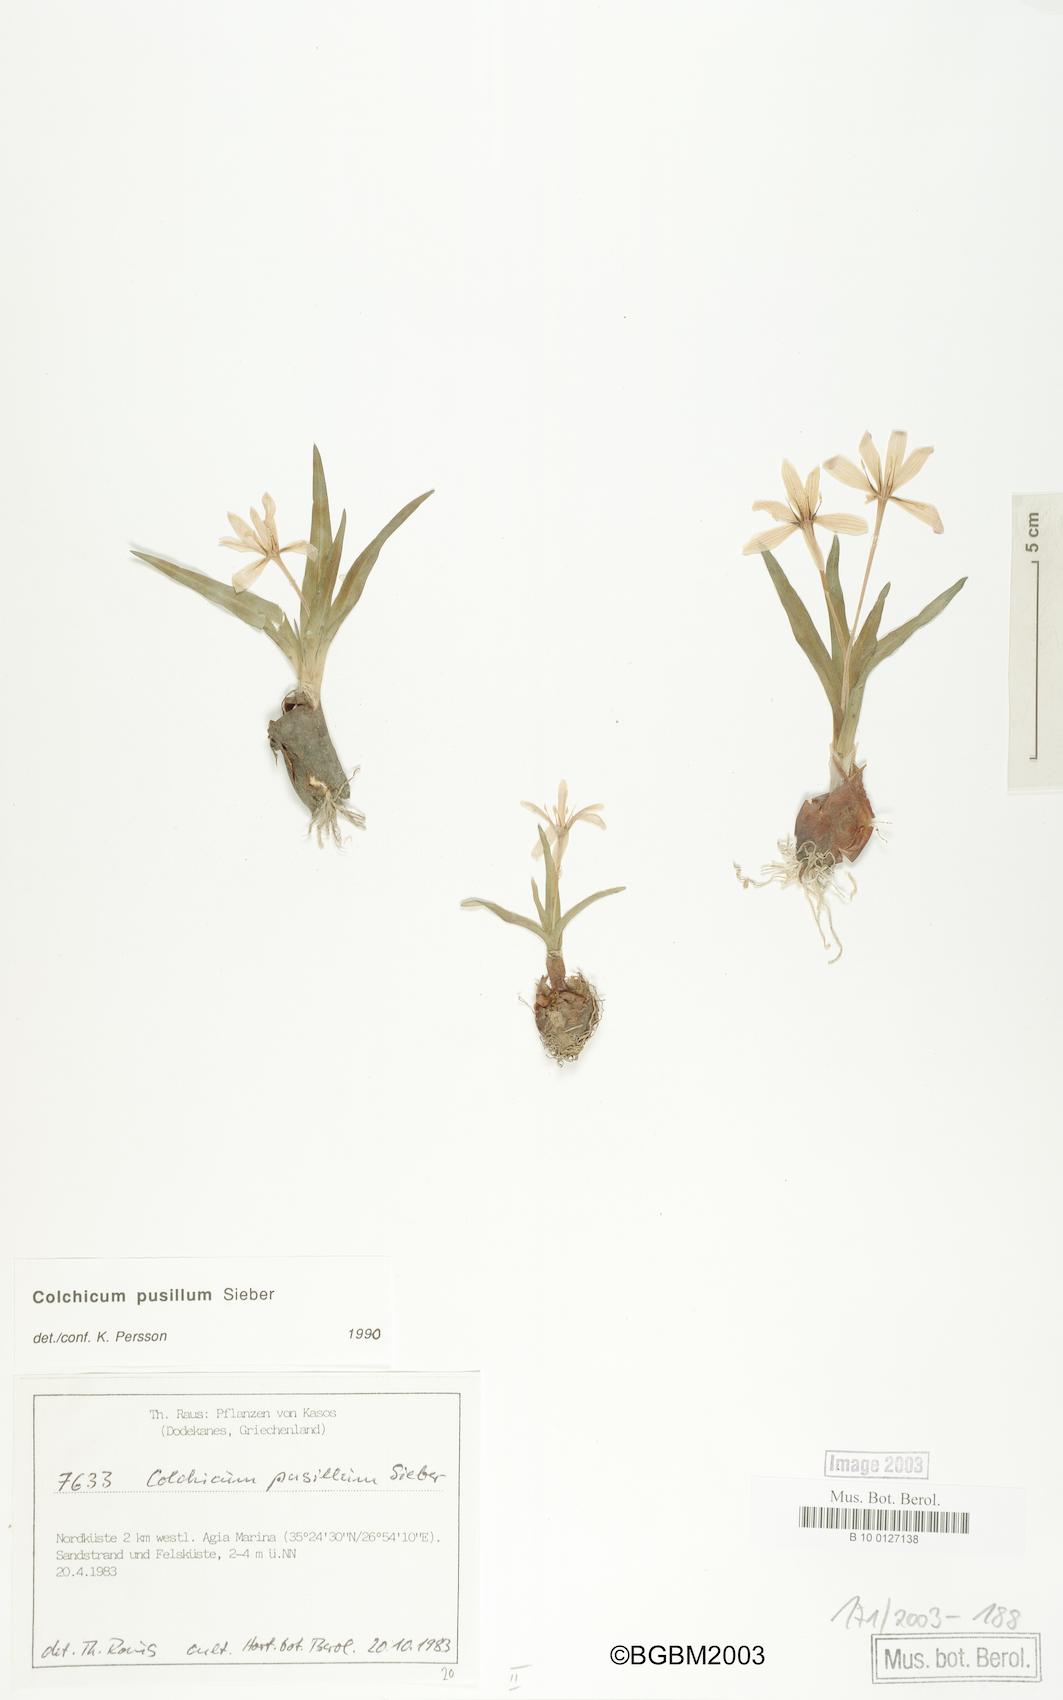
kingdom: Plantae
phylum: Tracheophyta
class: Liliopsida
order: Liliales
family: Colchicaceae
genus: Colchicum
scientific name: Colchicum pusillum
